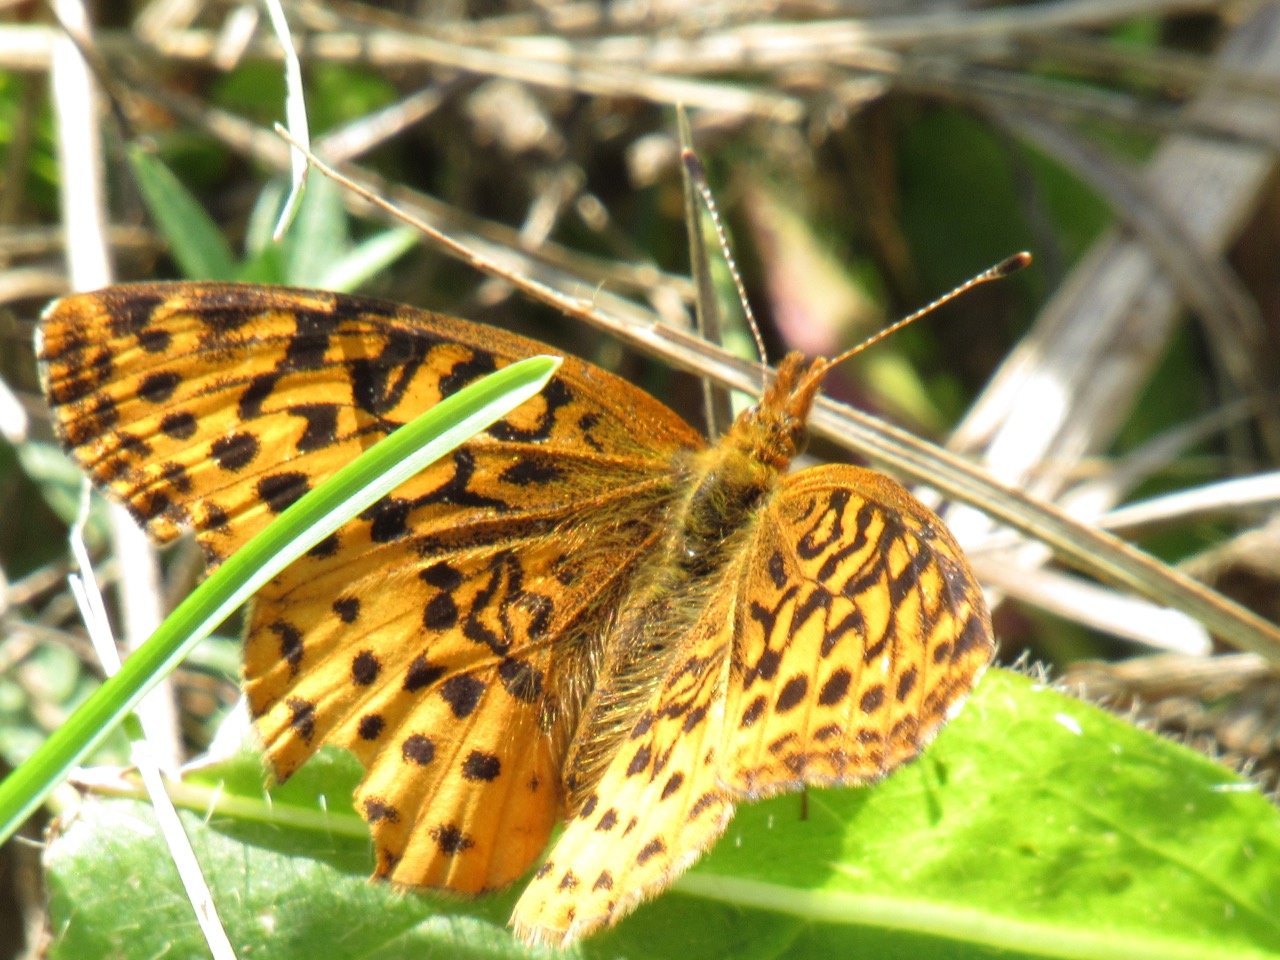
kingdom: Animalia
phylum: Arthropoda
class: Insecta
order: Lepidoptera
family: Nymphalidae
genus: Clossiana
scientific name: Clossiana toddi
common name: Meadow Fritillary
